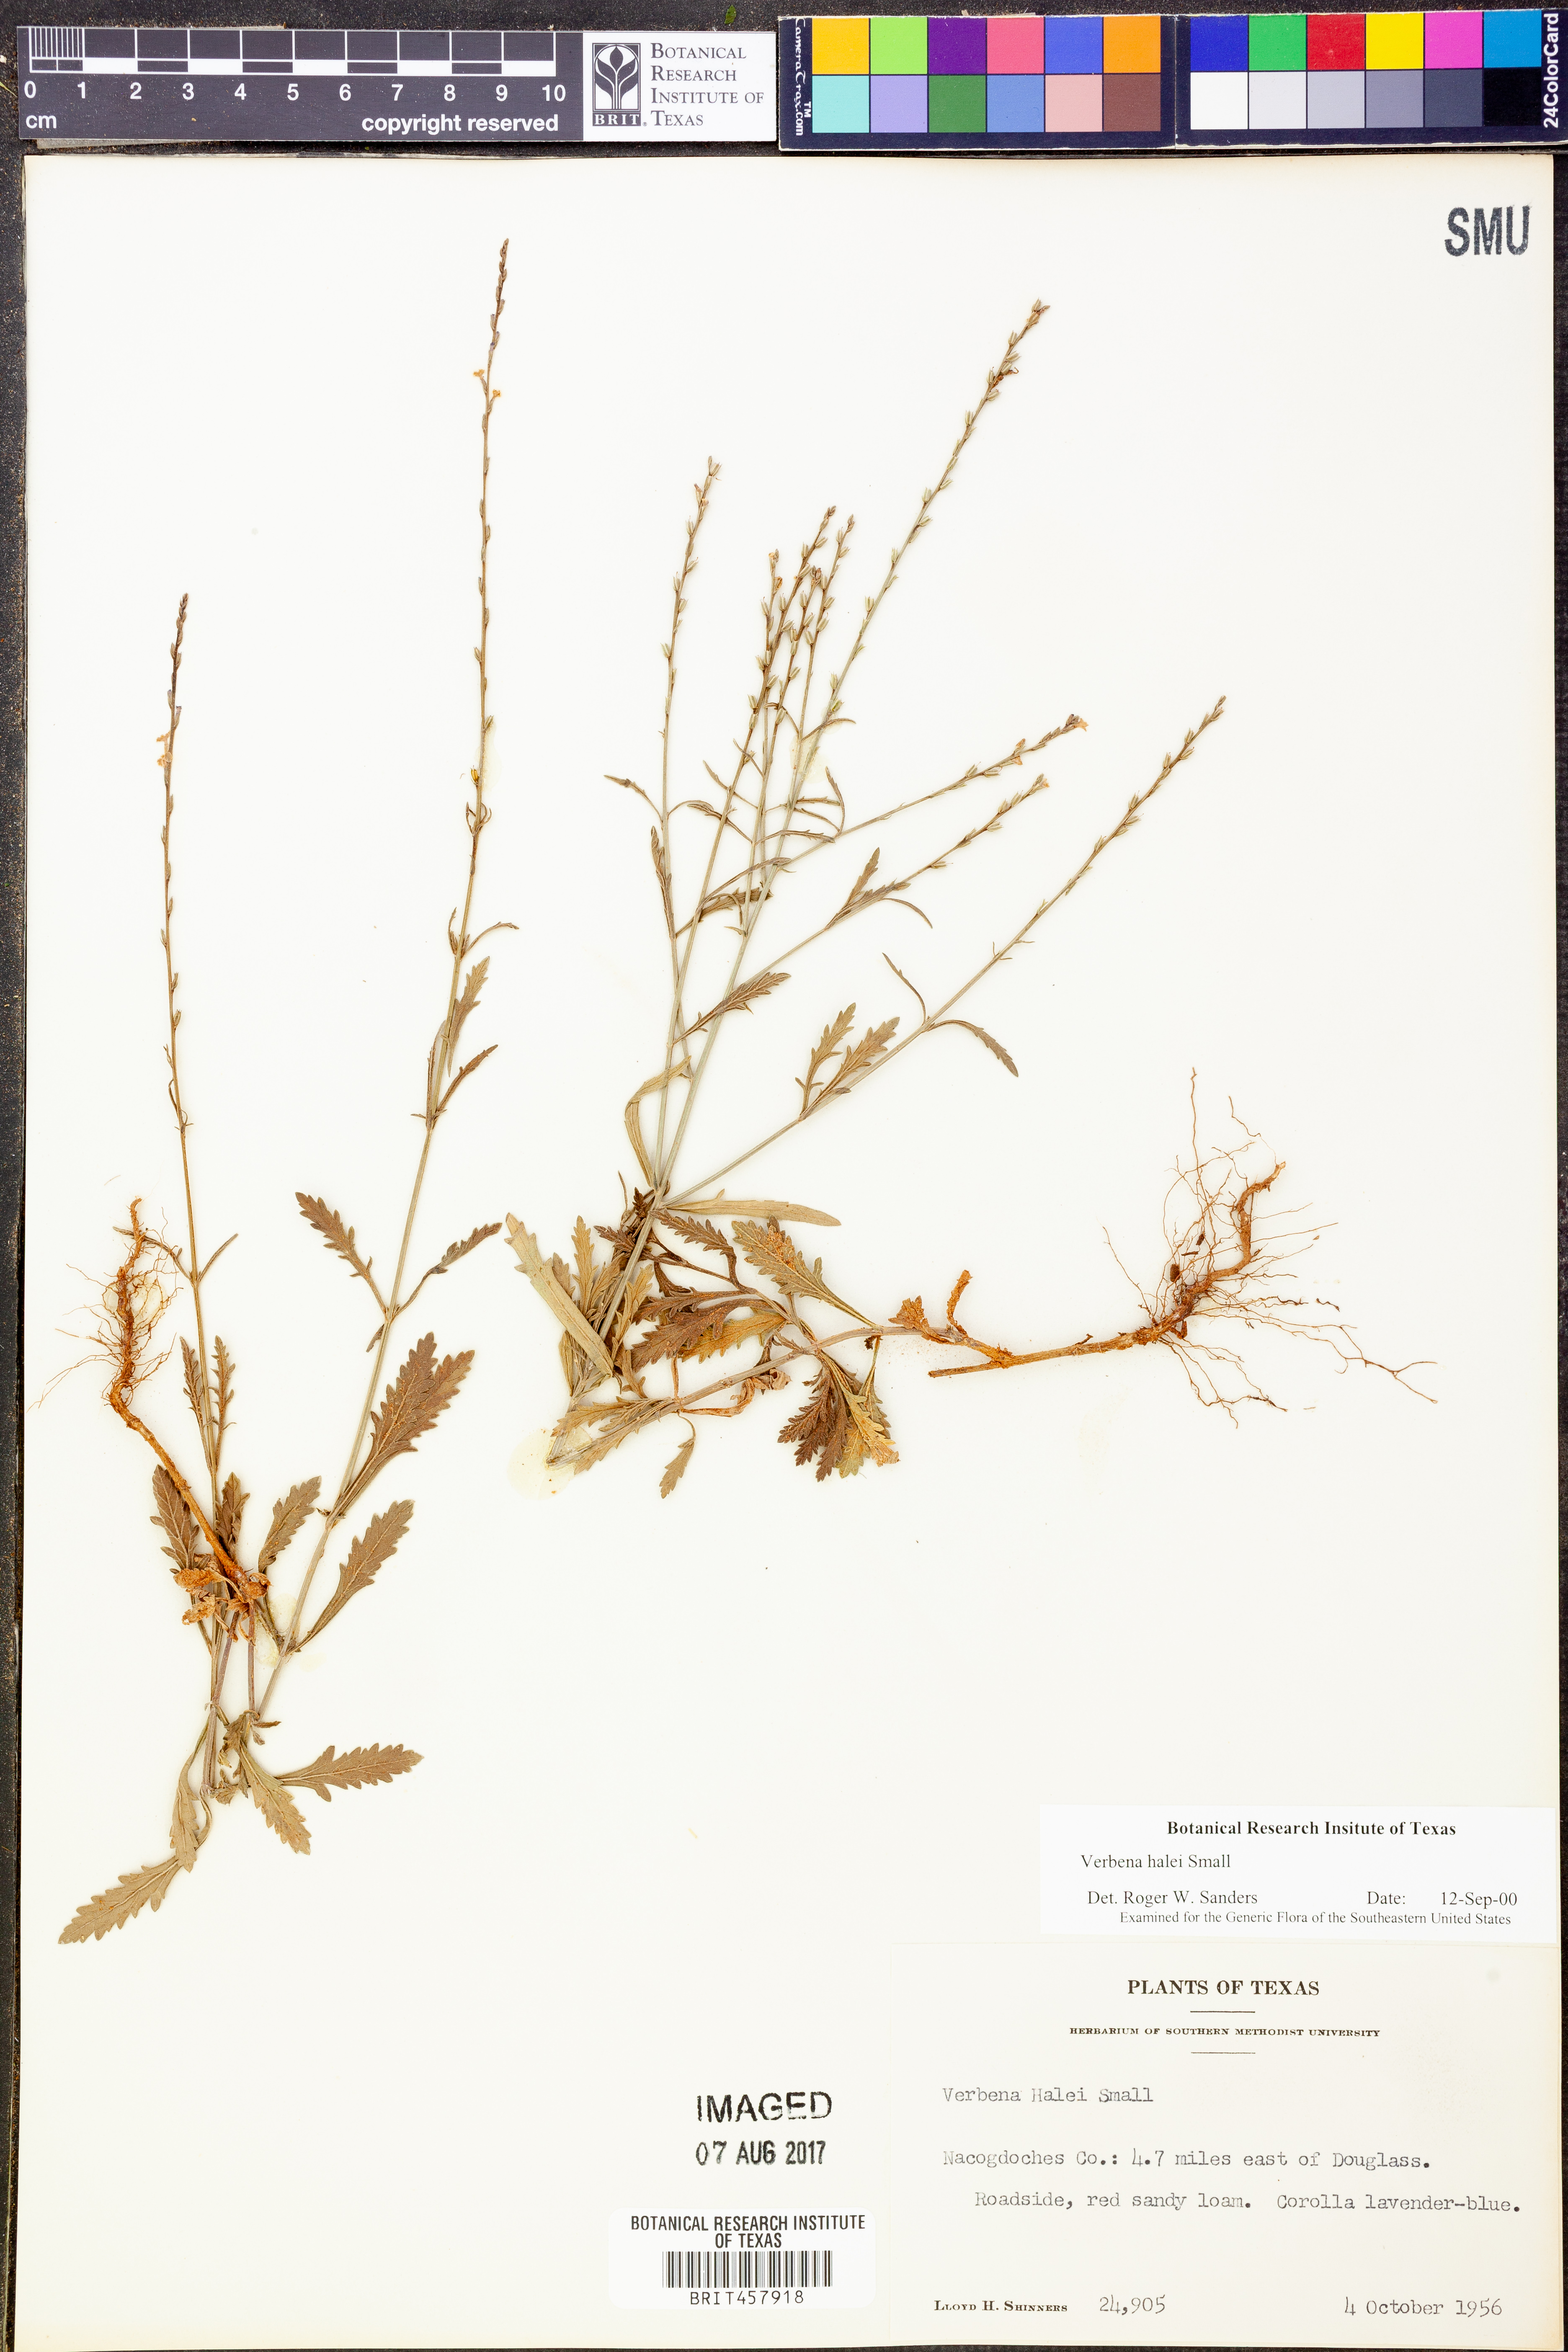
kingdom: Plantae
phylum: Tracheophyta
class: Magnoliopsida
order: Lamiales
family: Verbenaceae
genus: Verbena
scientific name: Verbena halei
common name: Texas vervain
